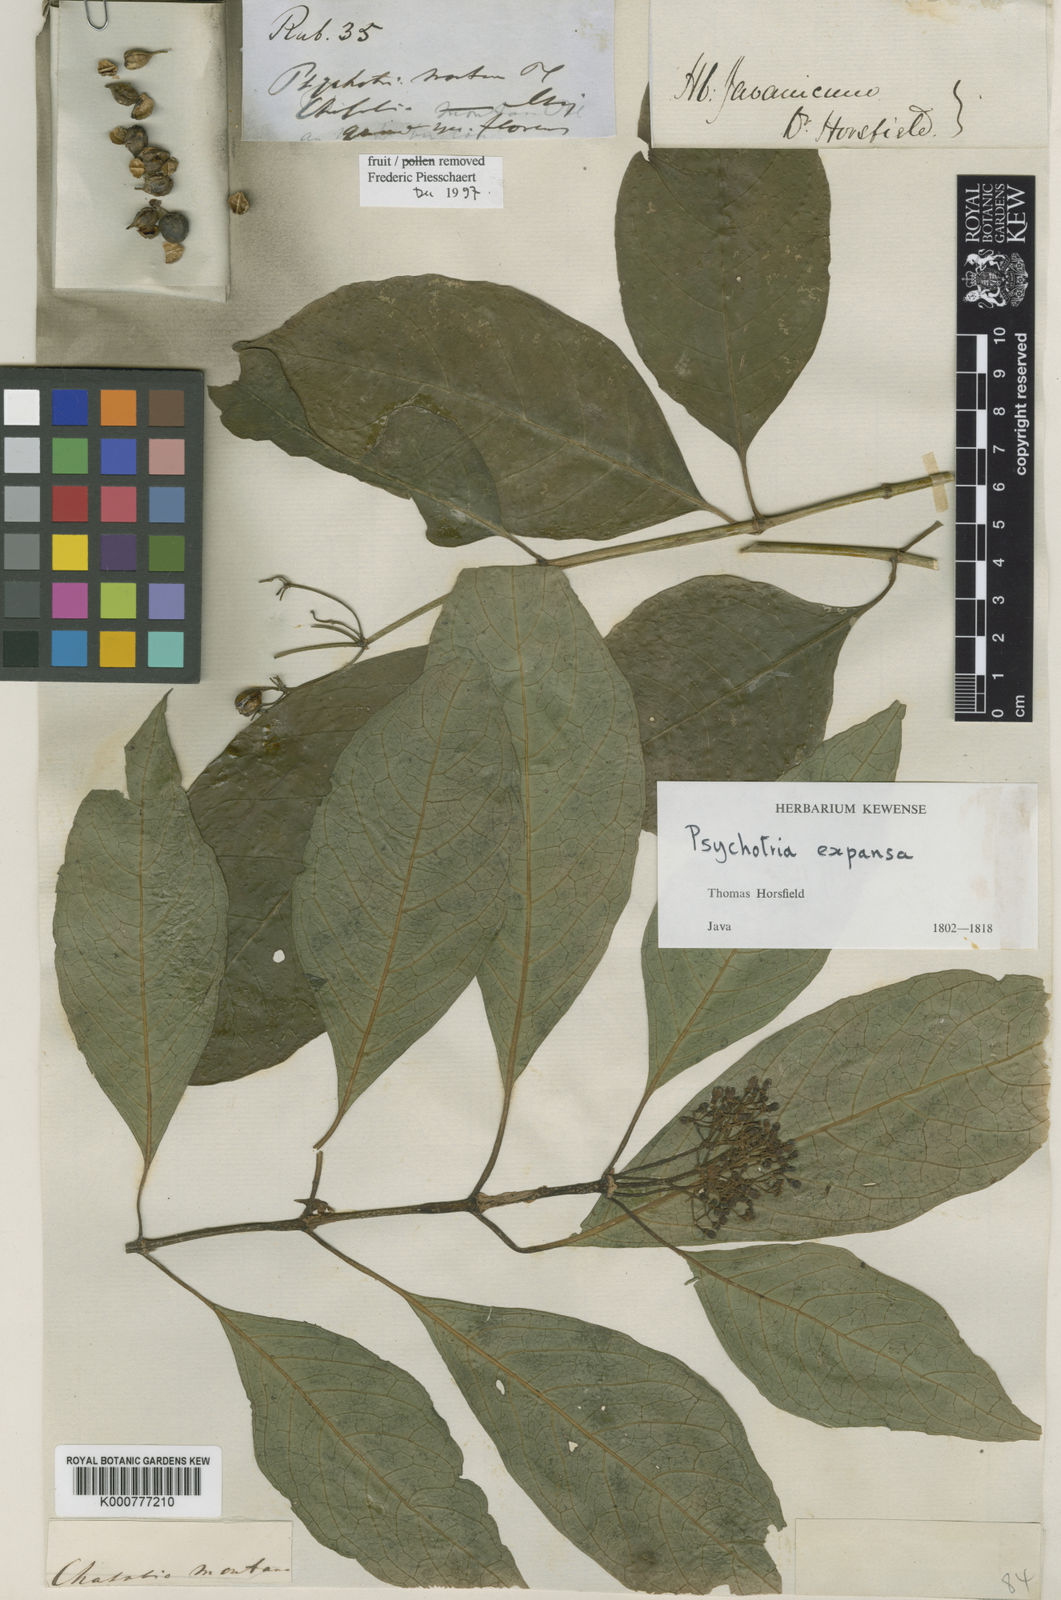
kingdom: Plantae
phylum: Tracheophyta
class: Magnoliopsida
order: Gentianales
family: Rubiaceae
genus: Eumachia
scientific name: Eumachia montana
